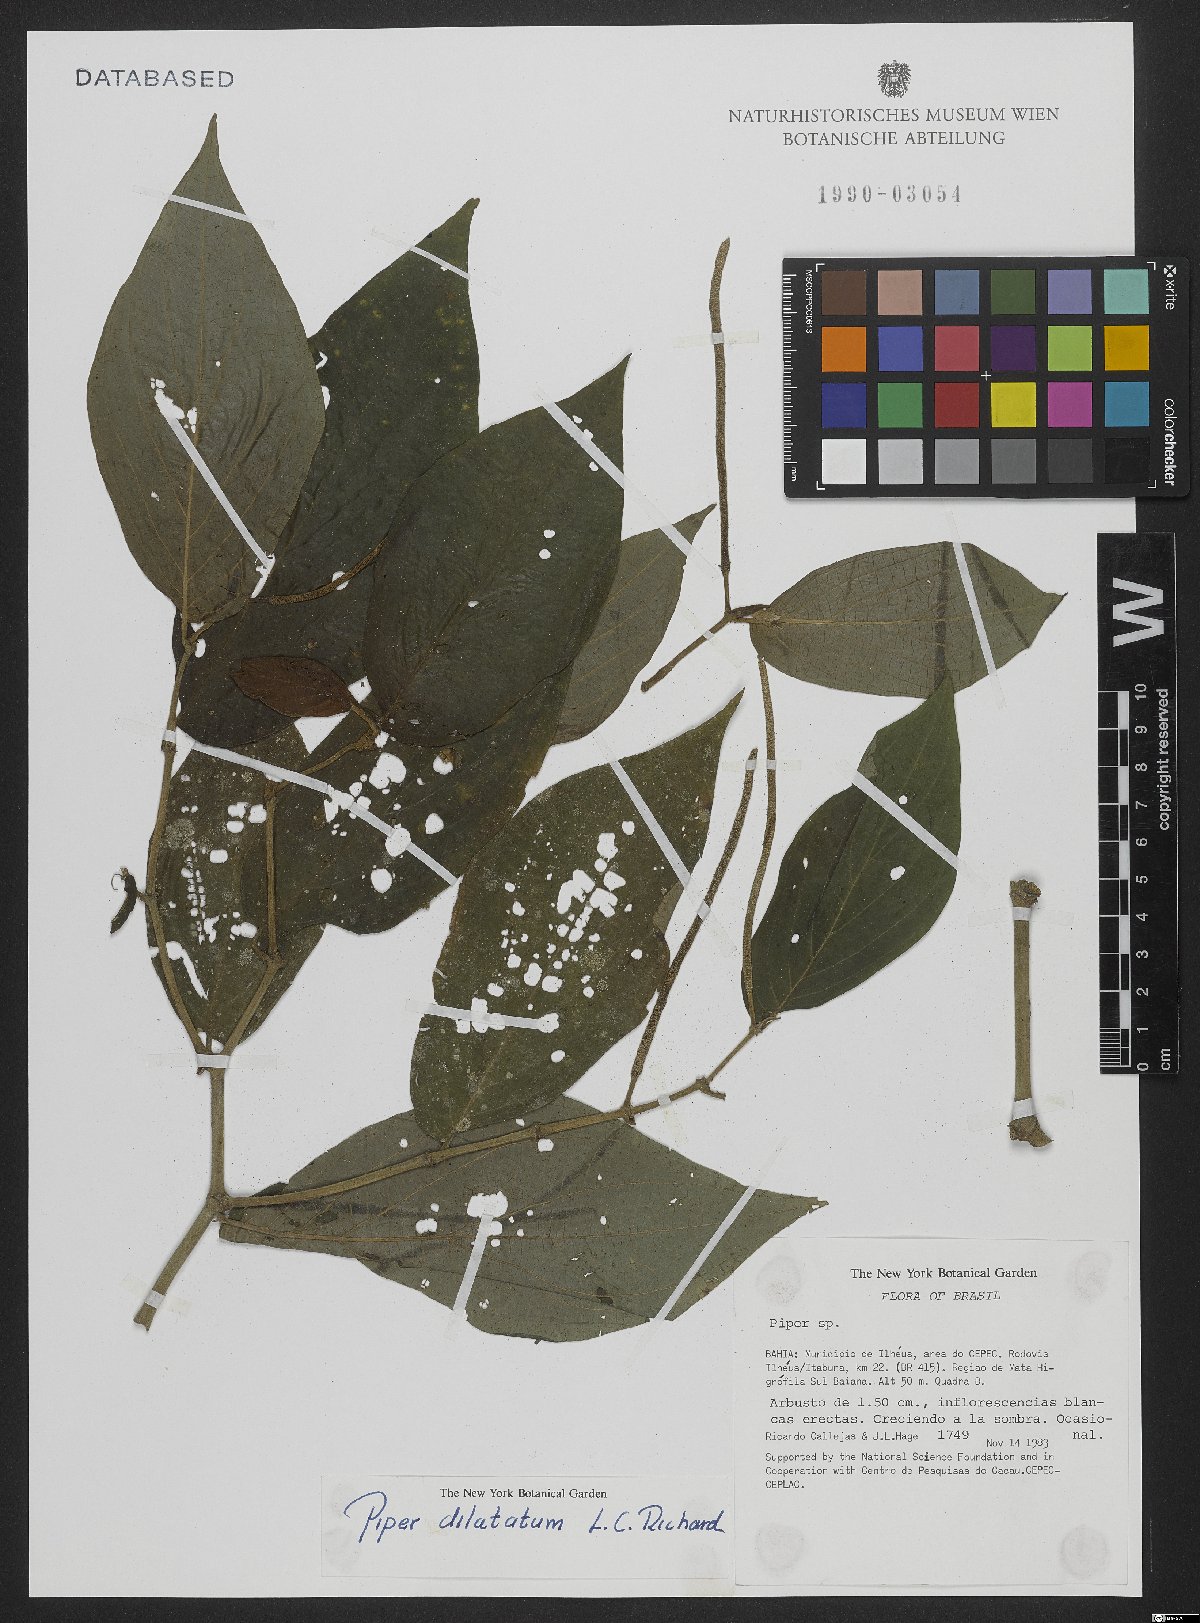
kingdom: Plantae
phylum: Tracheophyta
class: Magnoliopsida
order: Piperales
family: Piperaceae
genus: Piper
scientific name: Piper dilatatum
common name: Higuillo
